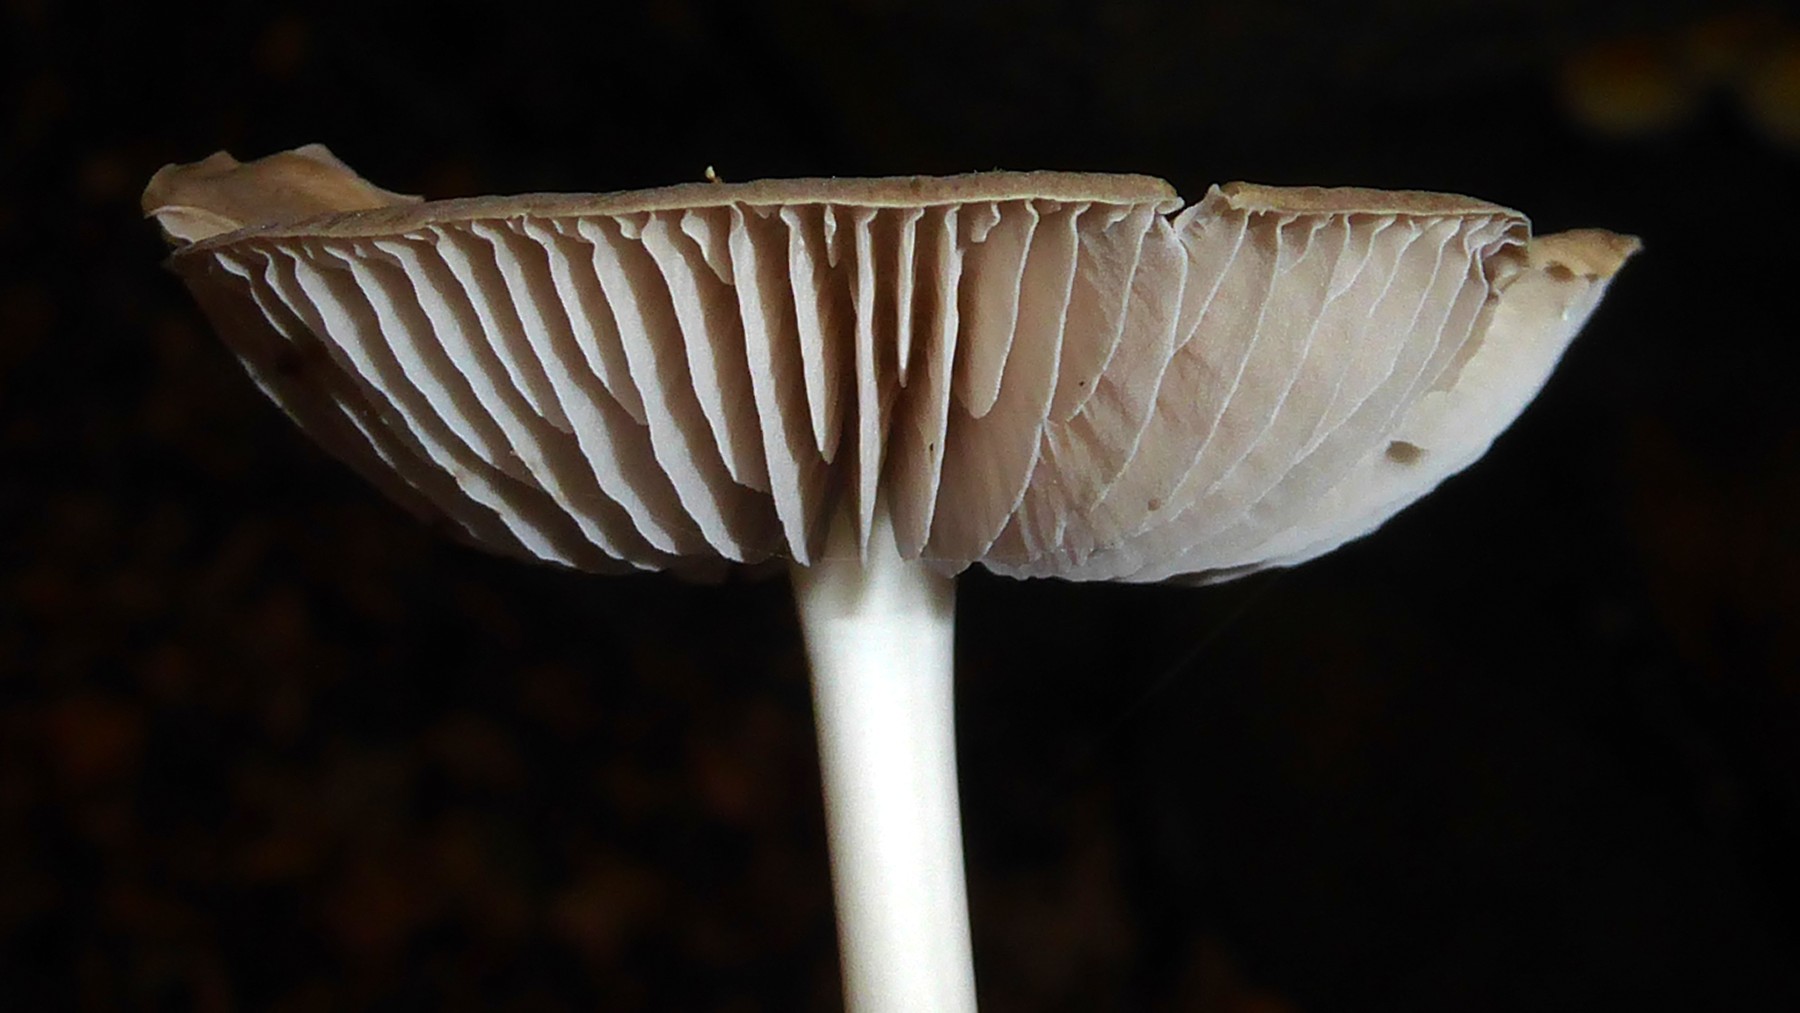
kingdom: Fungi
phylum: Basidiomycota
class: Agaricomycetes
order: Agaricales
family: Physalacriaceae
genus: Hymenopellis
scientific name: Hymenopellis radicata
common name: almindelig pælerodshat
